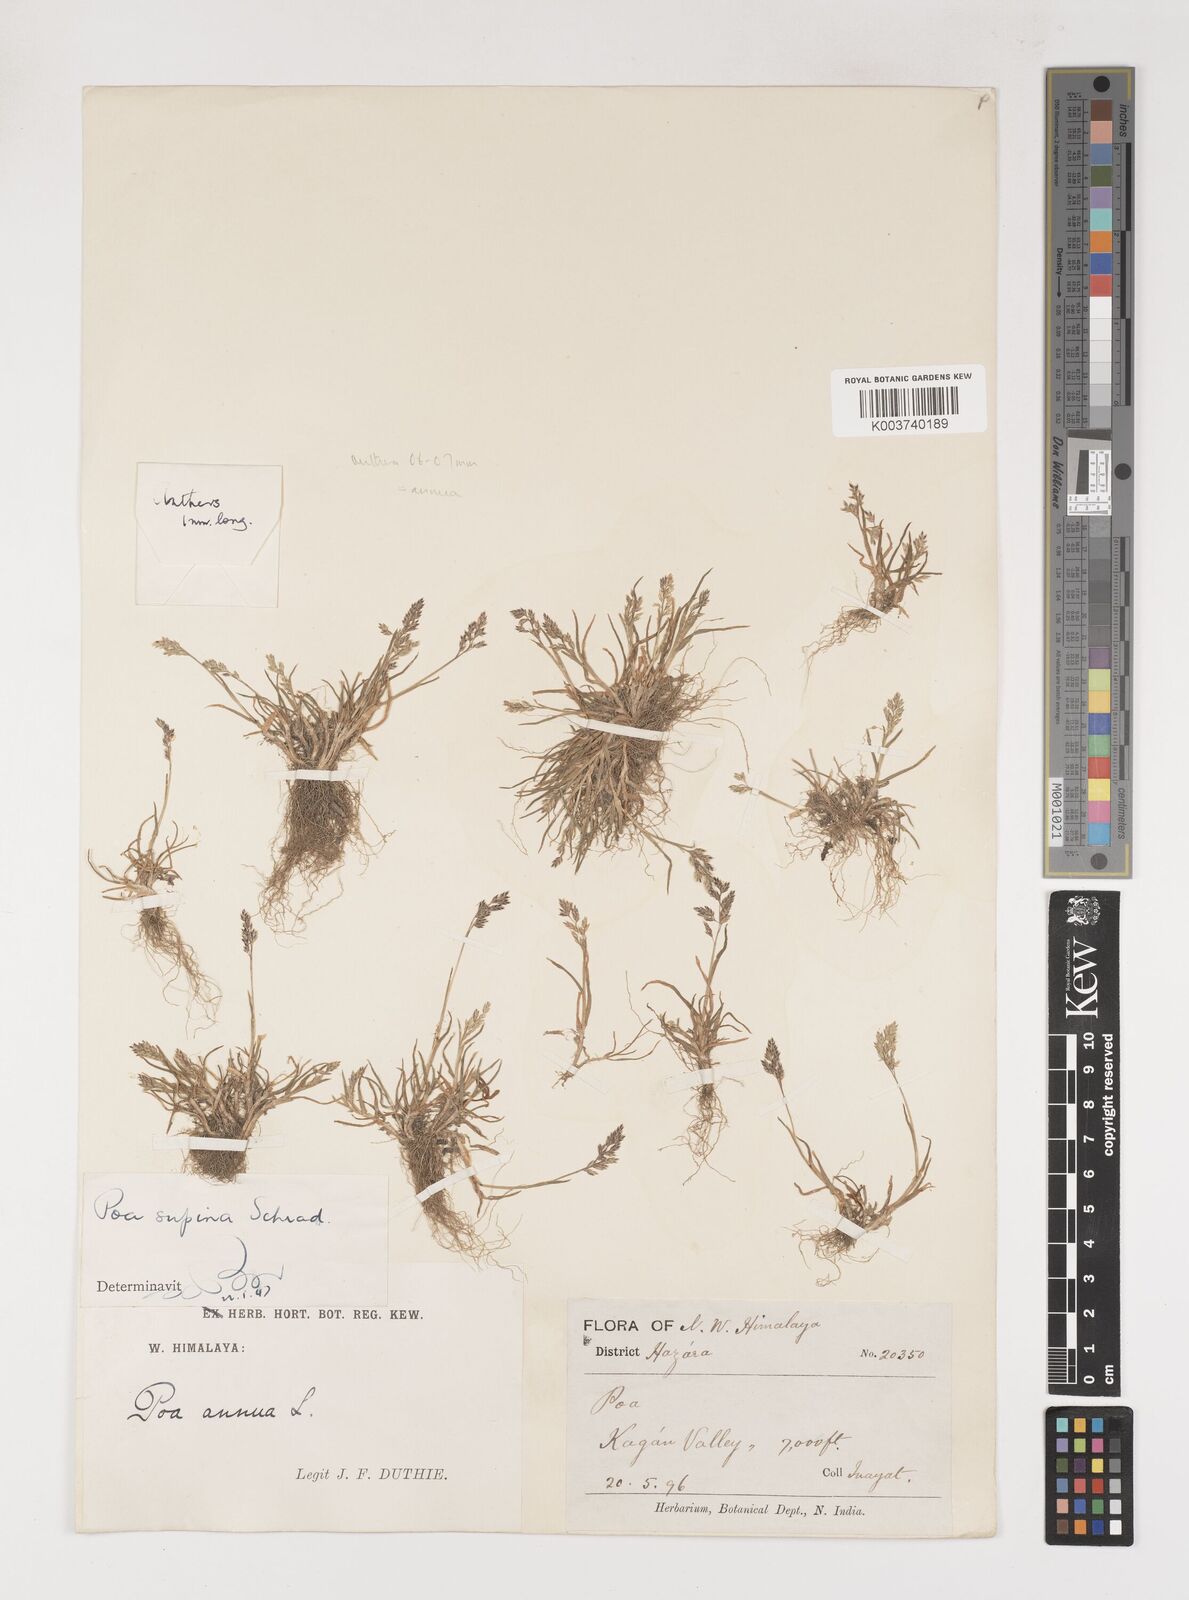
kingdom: Plantae
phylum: Tracheophyta
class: Liliopsida
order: Poales
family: Poaceae
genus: Poa
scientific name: Poa annua
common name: Annual bluegrass
